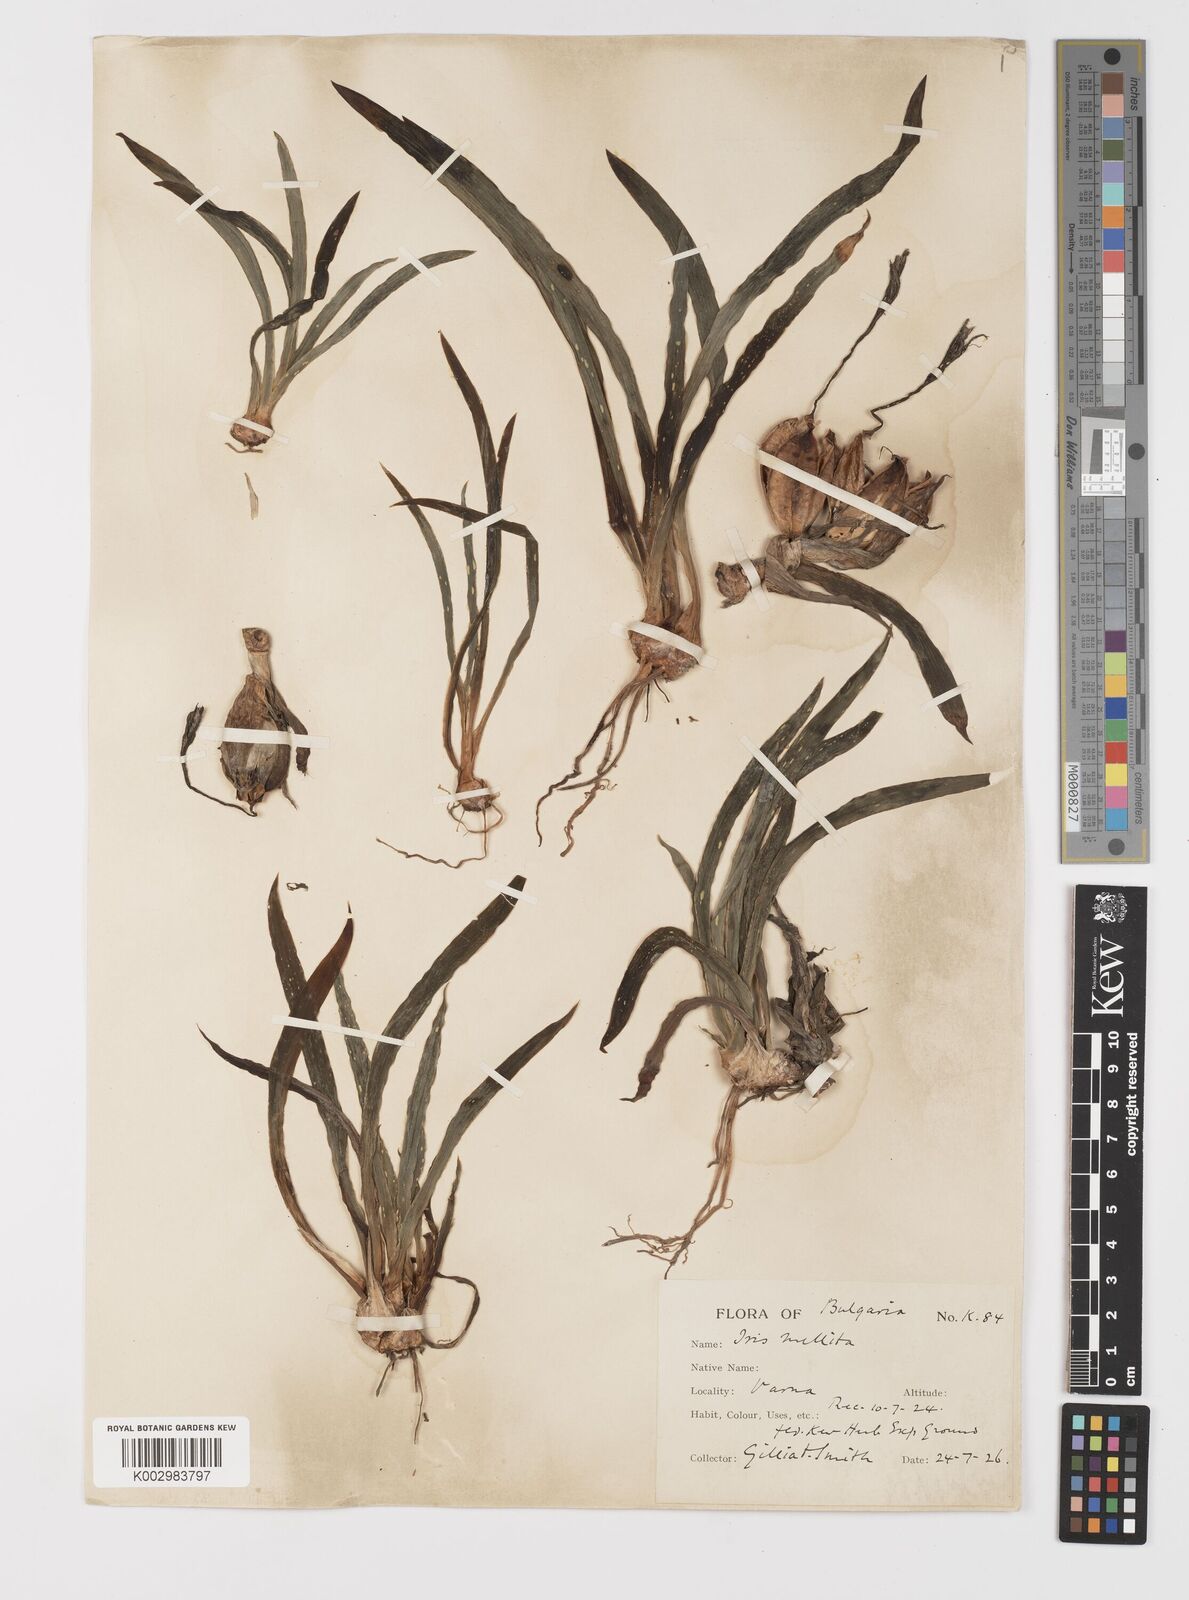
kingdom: Plantae
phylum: Tracheophyta
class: Liliopsida
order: Asparagales
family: Iridaceae
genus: Iris
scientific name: Iris suaveolens
